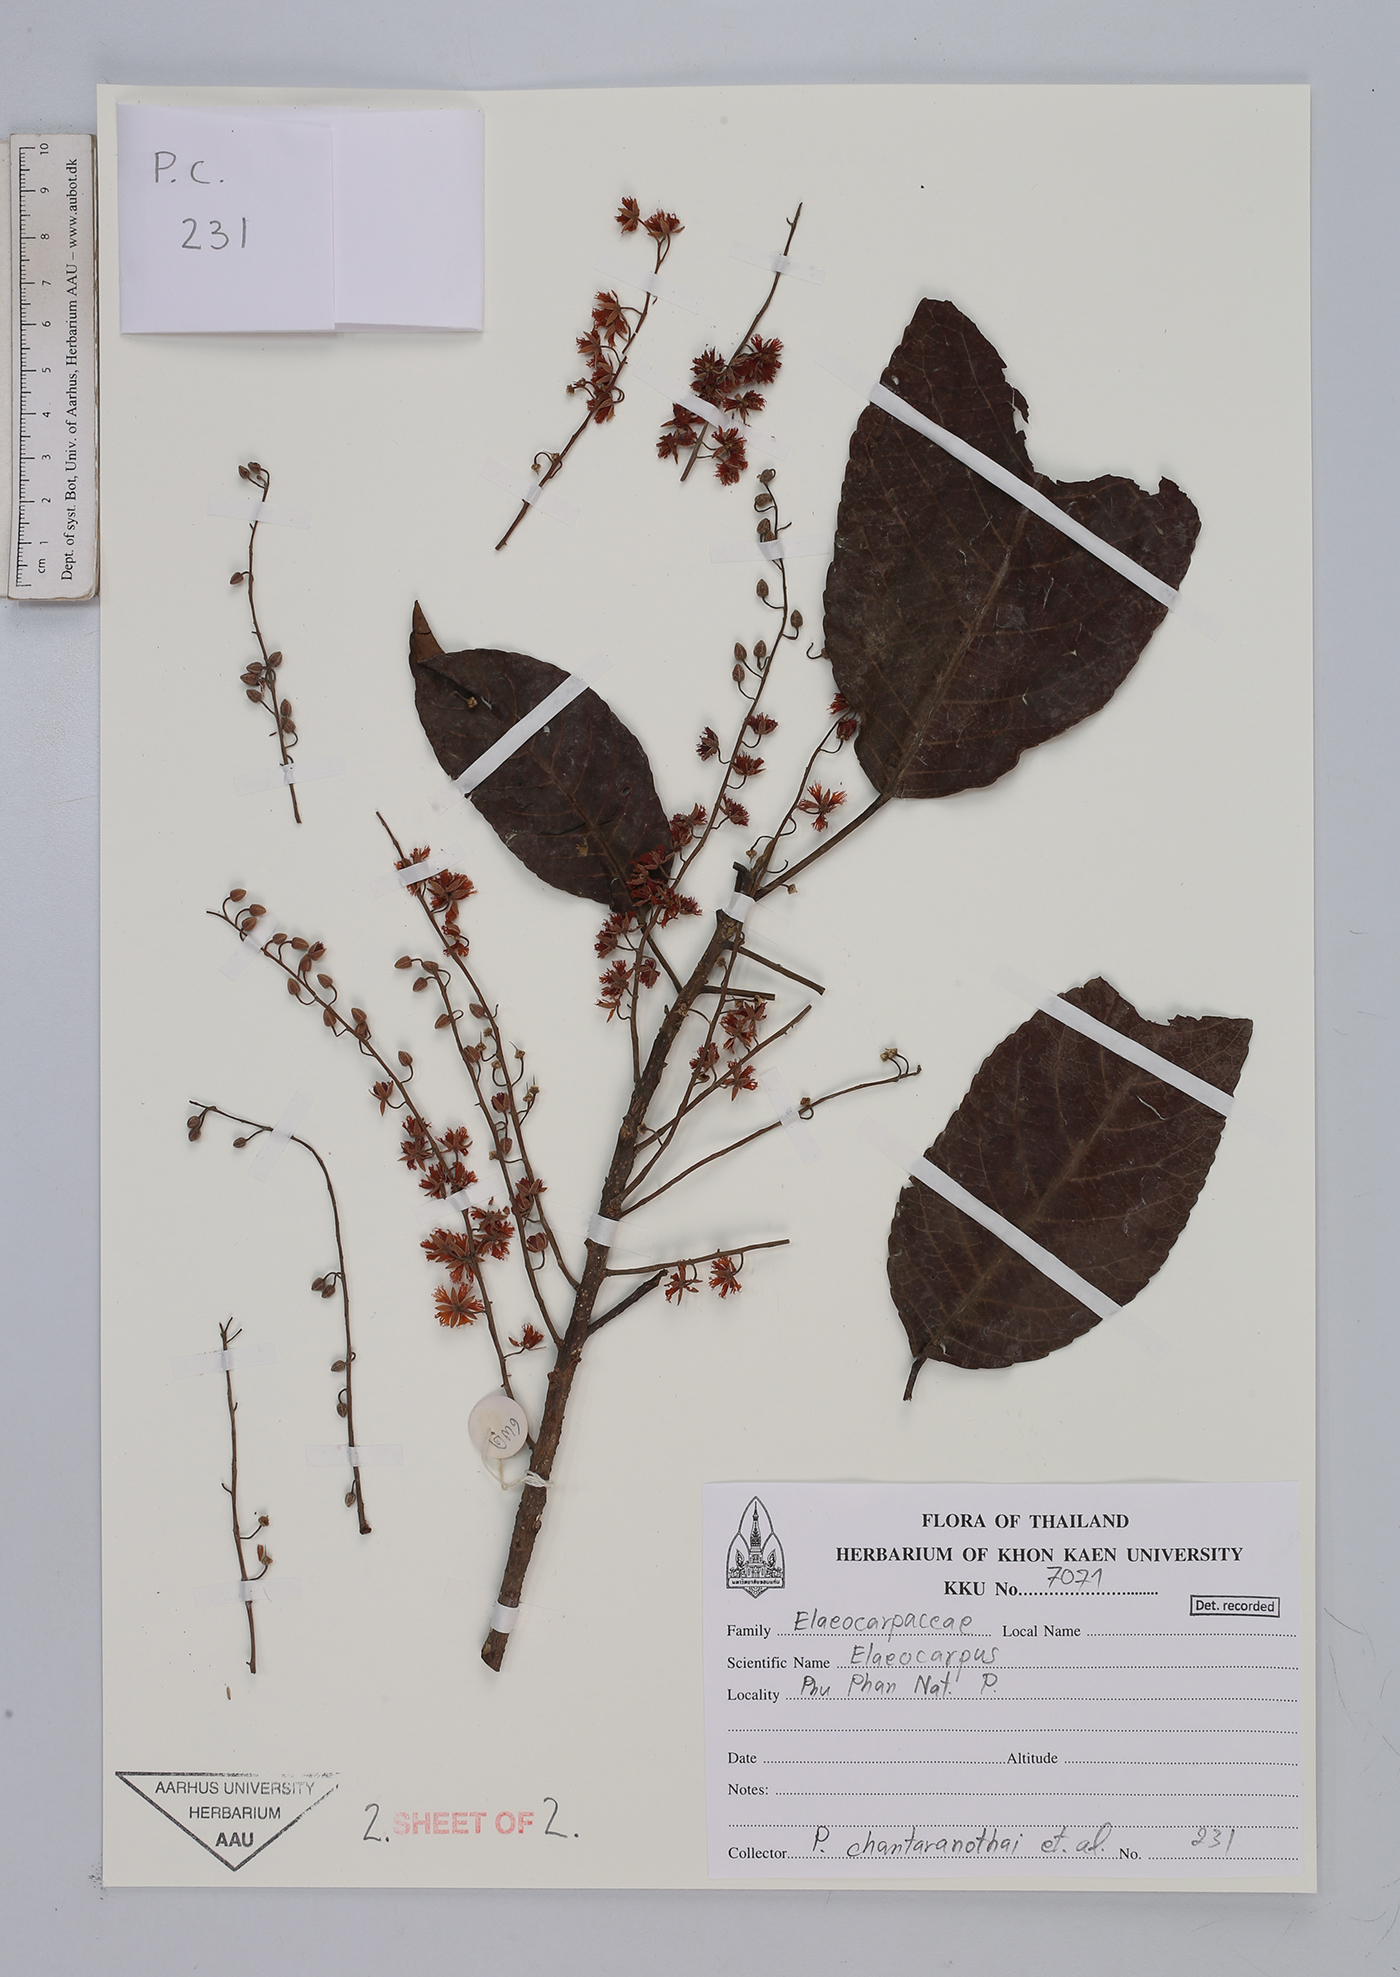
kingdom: Plantae
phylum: Tracheophyta
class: Magnoliopsida
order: Oxalidales
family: Elaeocarpaceae
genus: Elaeocarpus
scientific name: Elaeocarpus
